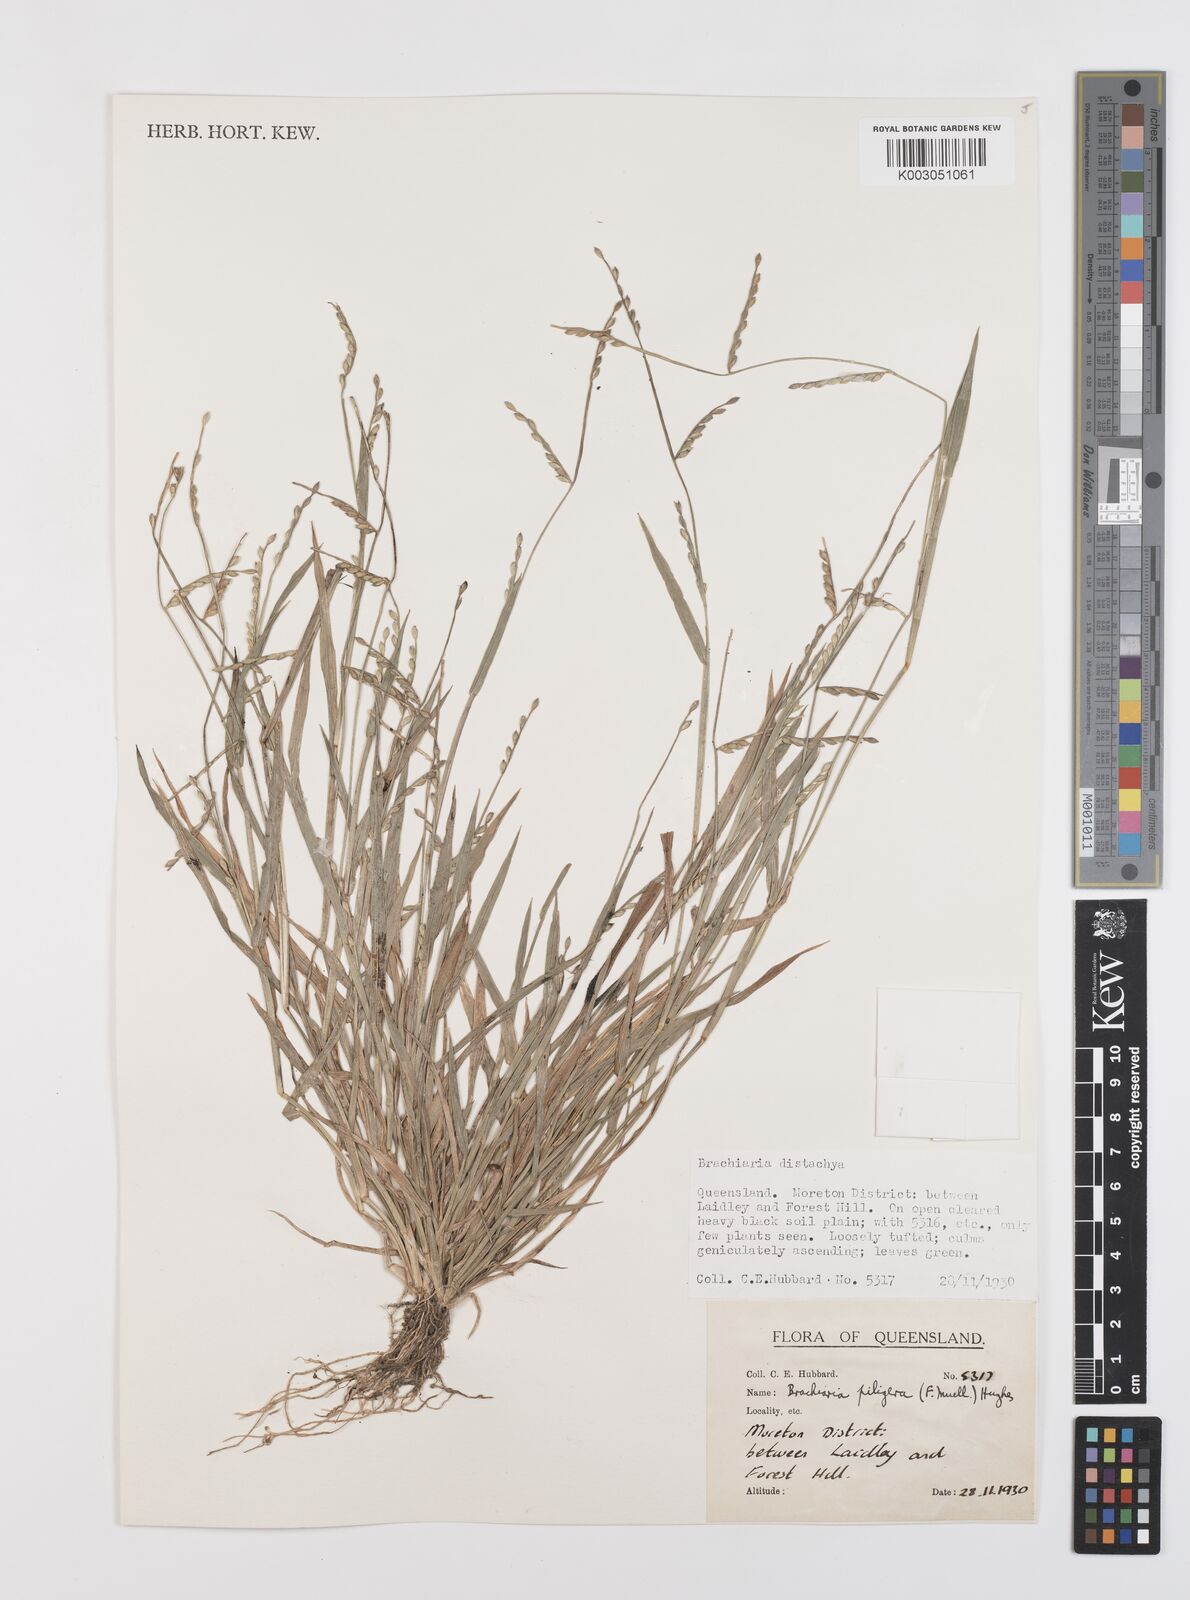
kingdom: Plantae
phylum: Tracheophyta
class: Liliopsida
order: Poales
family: Poaceae
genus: Urochloa
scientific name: Urochloa piligera
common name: Wattle signalgrass
